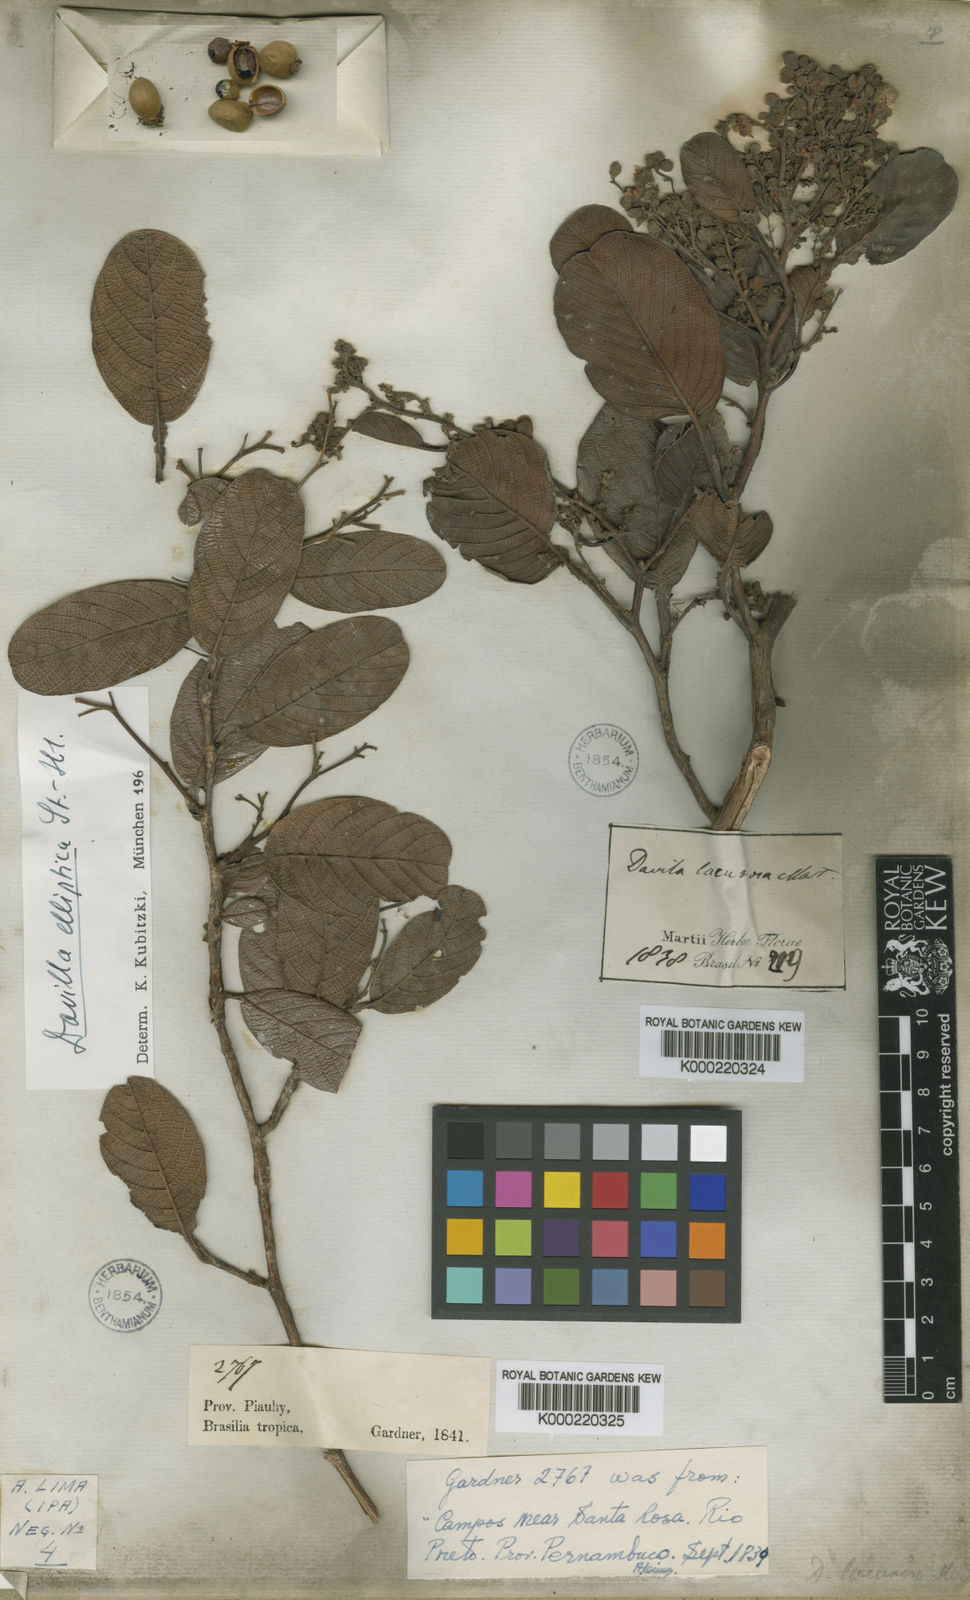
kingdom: Plantae
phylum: Tracheophyta
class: Magnoliopsida
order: Dilleniales
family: Dilleniaceae
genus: Davilla
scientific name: Davilla lacunosa
